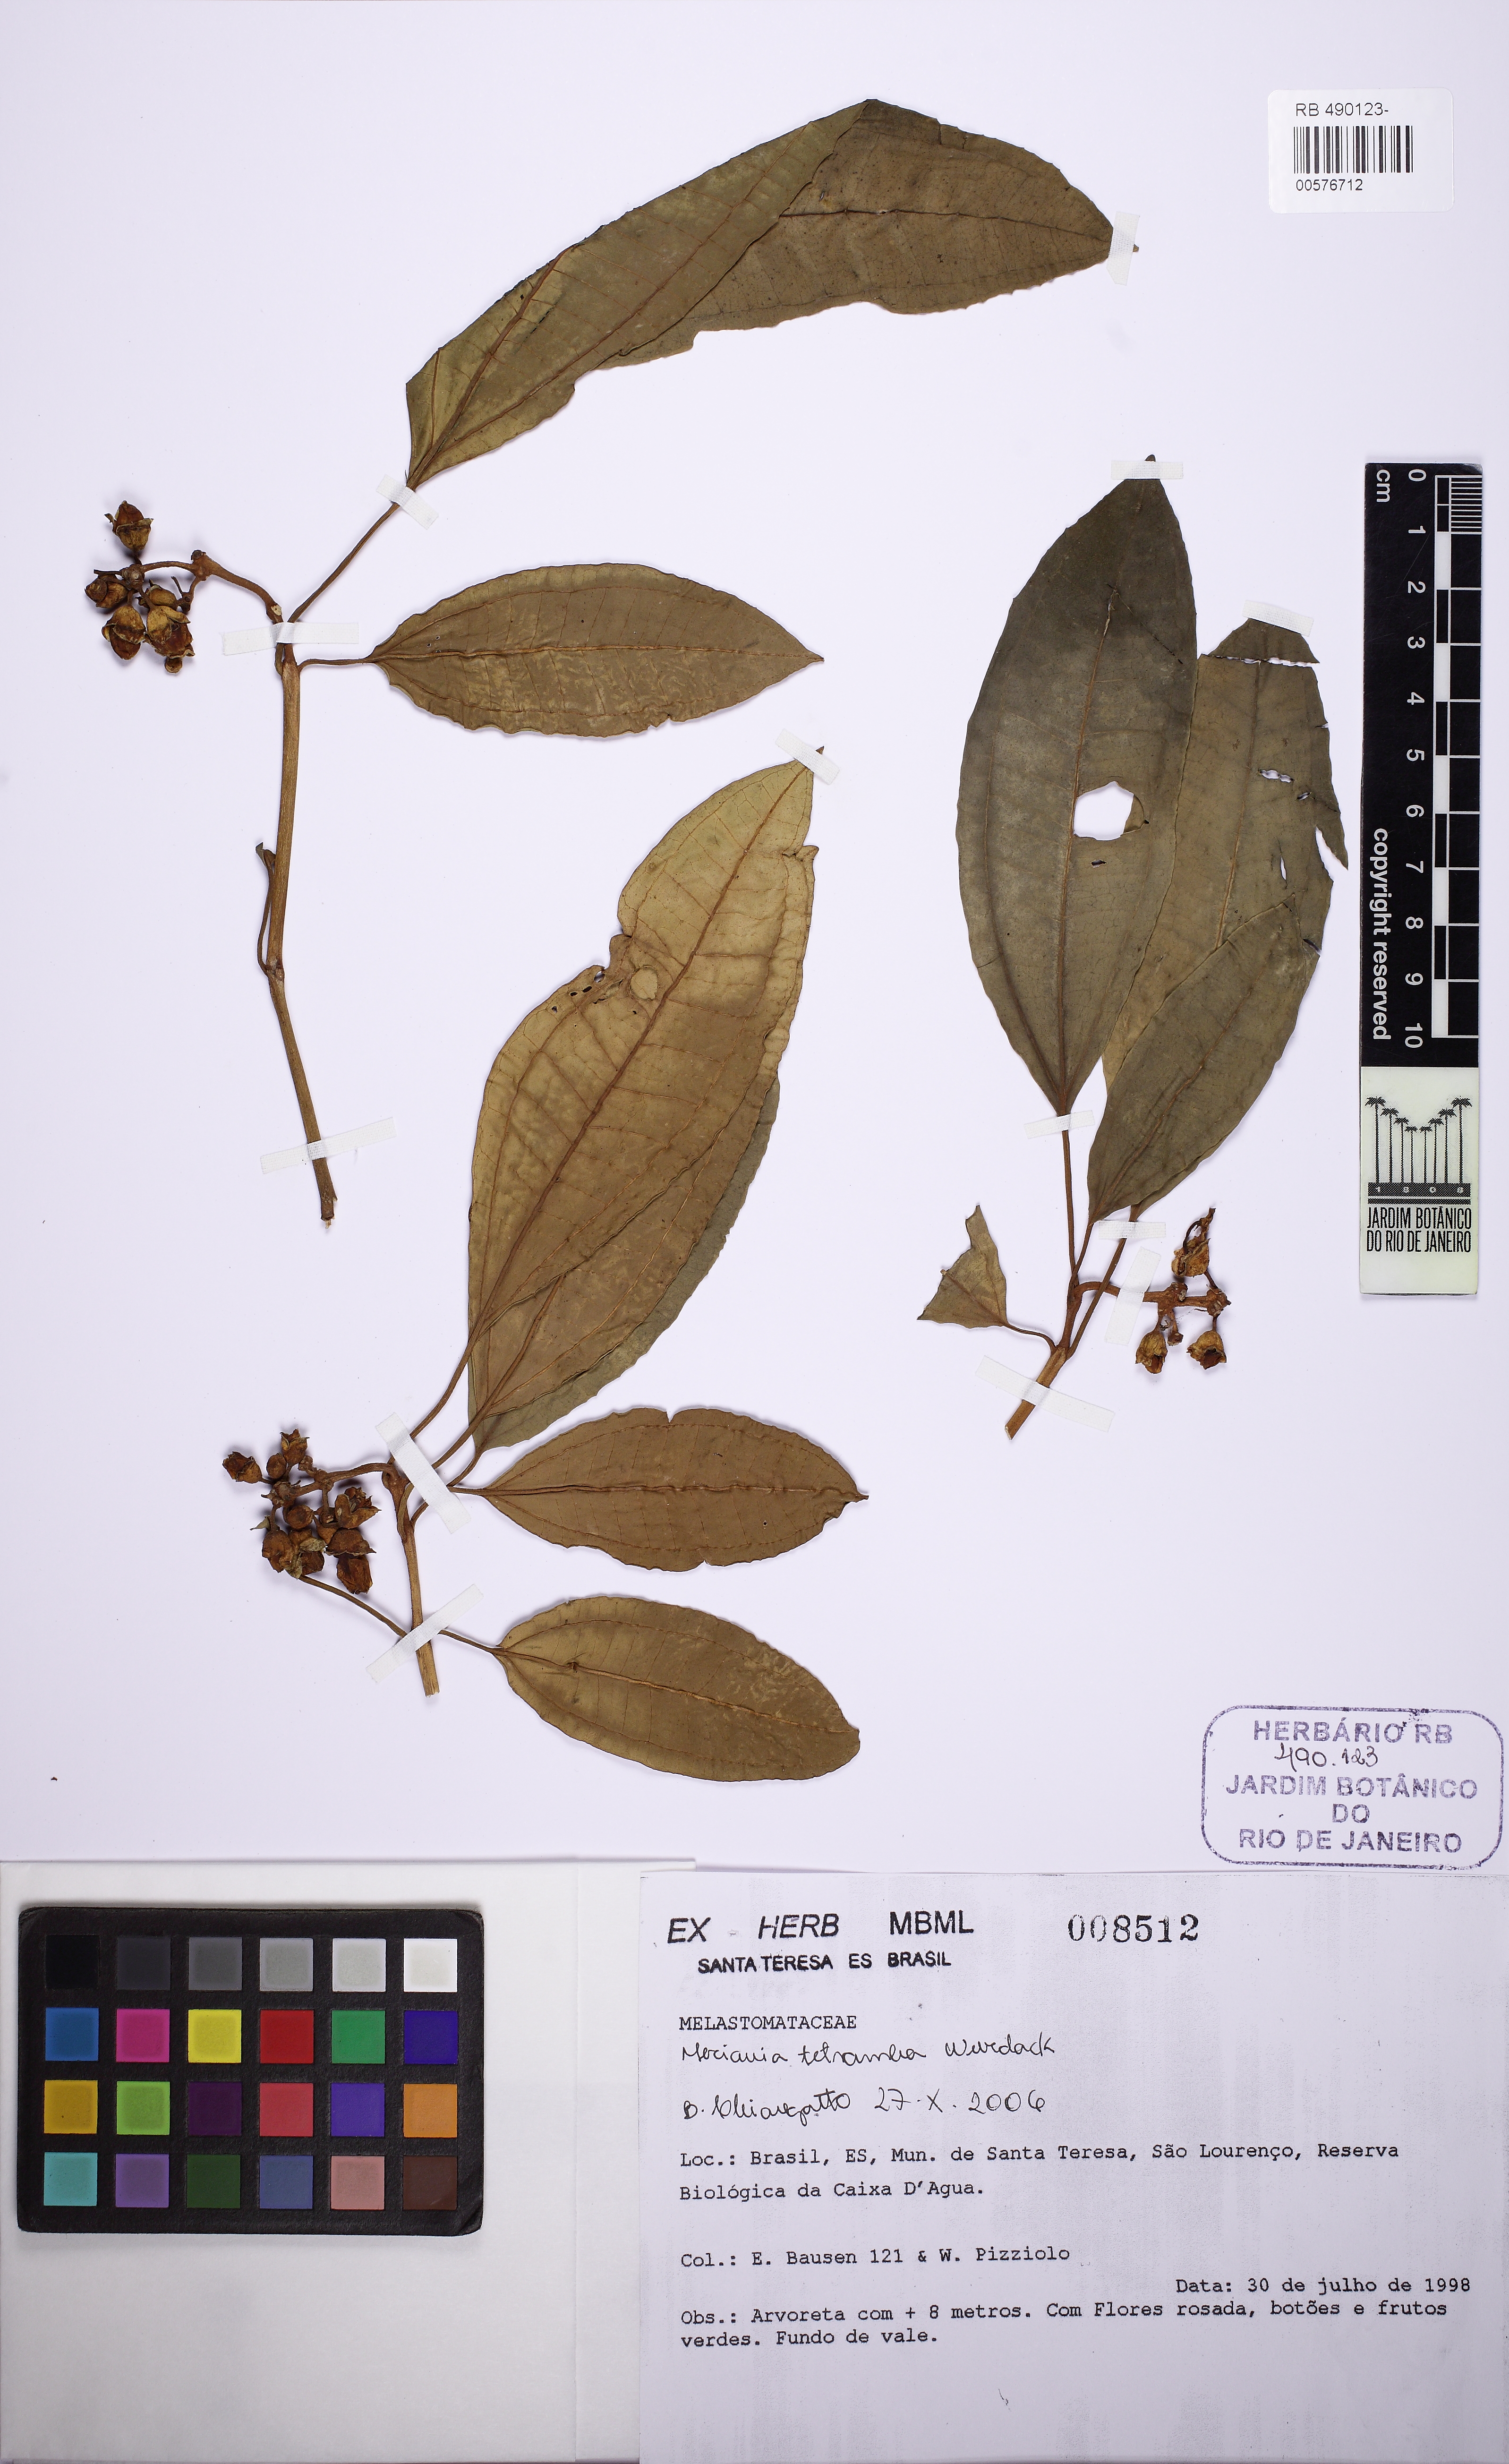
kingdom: Plantae
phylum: Tracheophyta
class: Magnoliopsida
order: Myrtales
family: Melastomataceae
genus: Meriania
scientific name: Meriania tetramera
